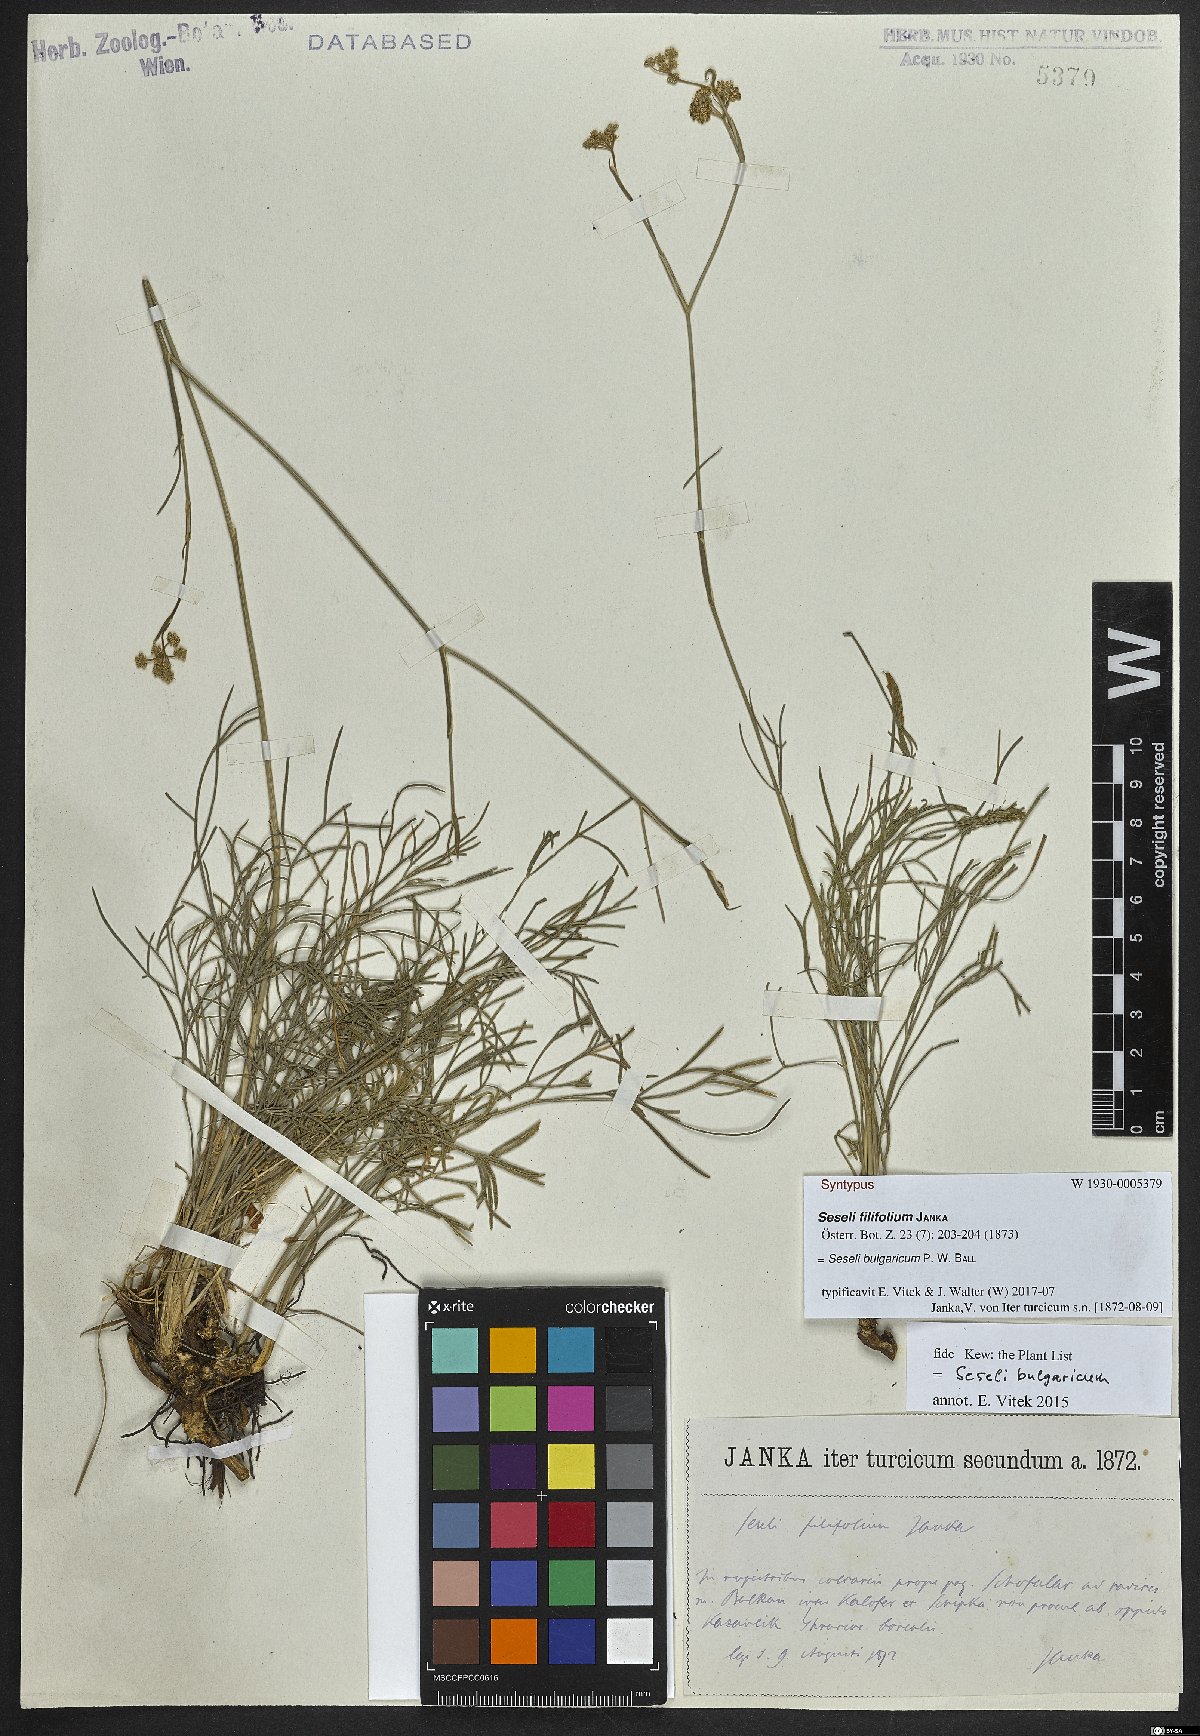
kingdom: Plantae
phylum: Tracheophyta
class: Magnoliopsida
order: Apiales
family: Apiaceae
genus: Seseli
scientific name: Seseli bulgaricum
